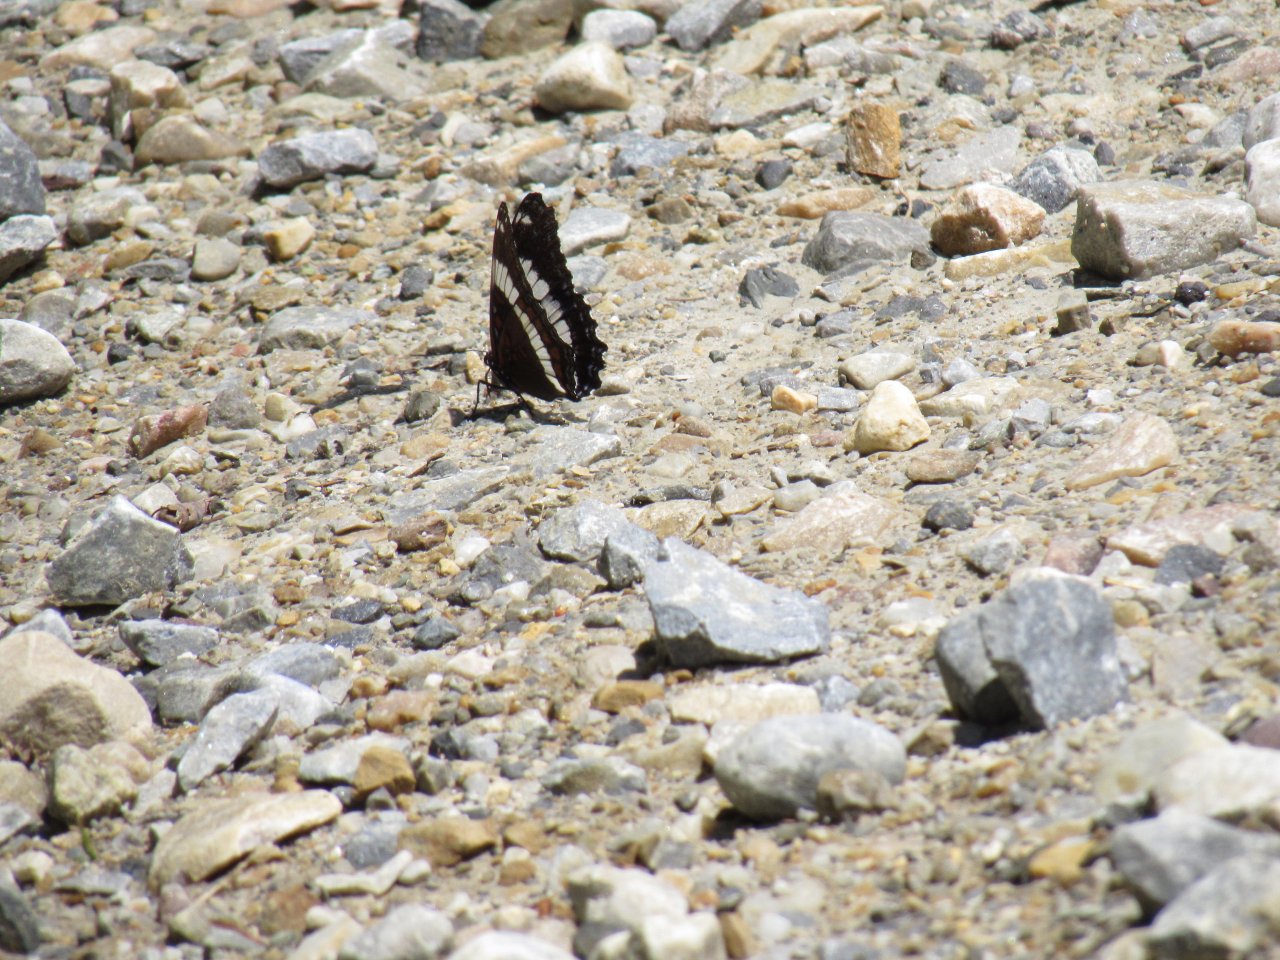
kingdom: Animalia
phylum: Arthropoda
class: Insecta
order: Lepidoptera
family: Nymphalidae
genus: Limenitis
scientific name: Limenitis arthemis
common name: Red-spotted Admiral
